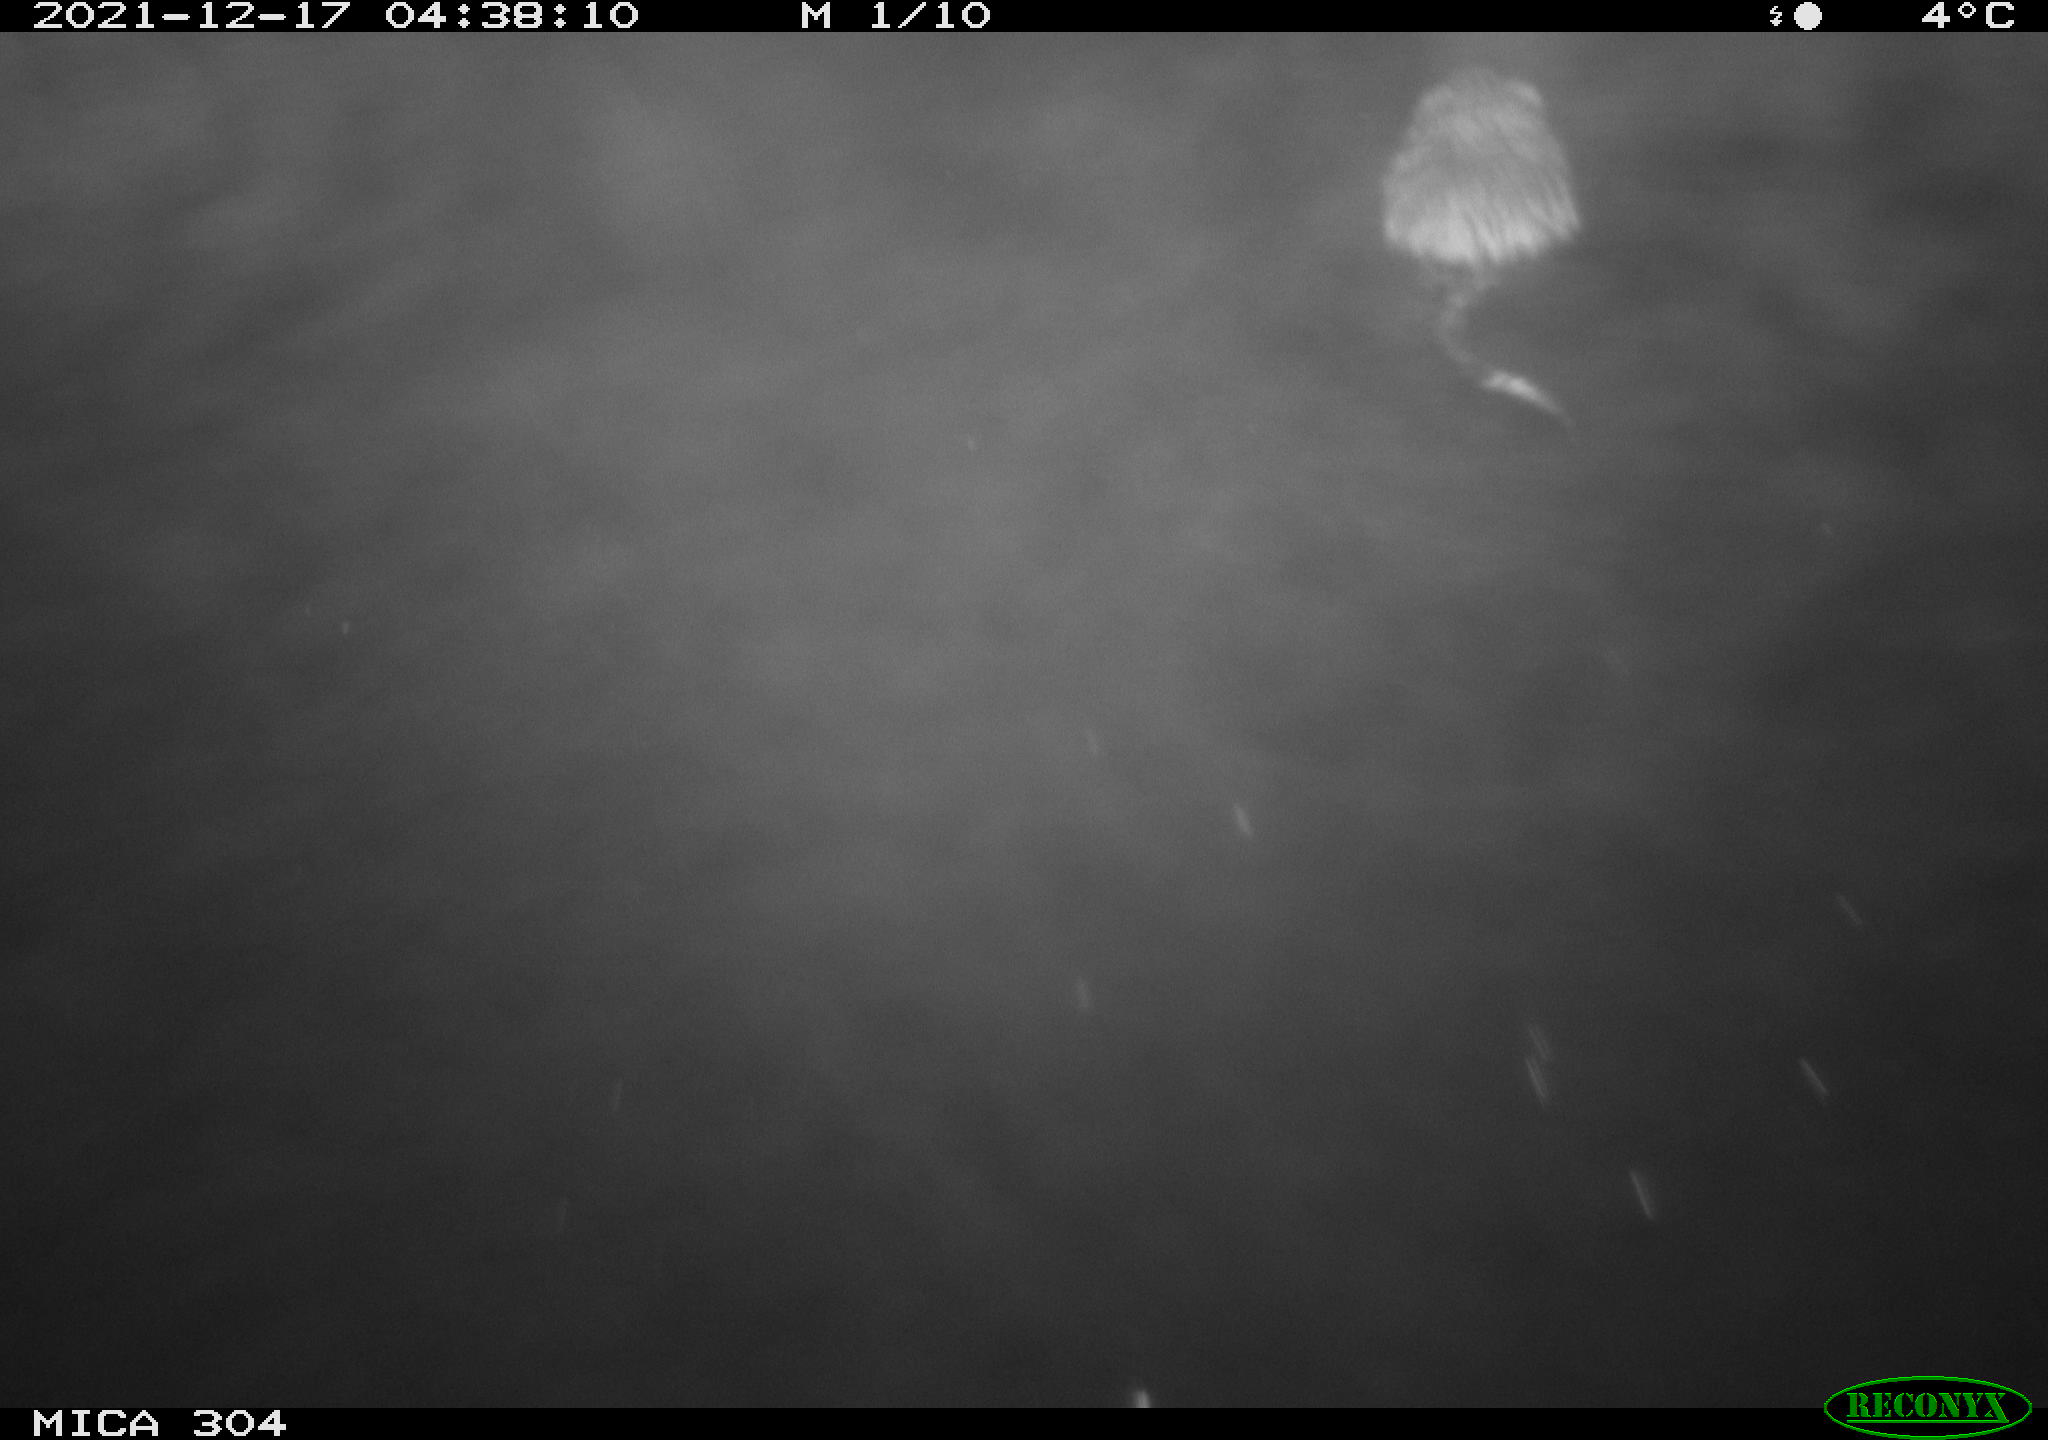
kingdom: Animalia
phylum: Chordata
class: Mammalia
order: Rodentia
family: Cricetidae
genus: Ondatra
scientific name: Ondatra zibethicus
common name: Muskrat
